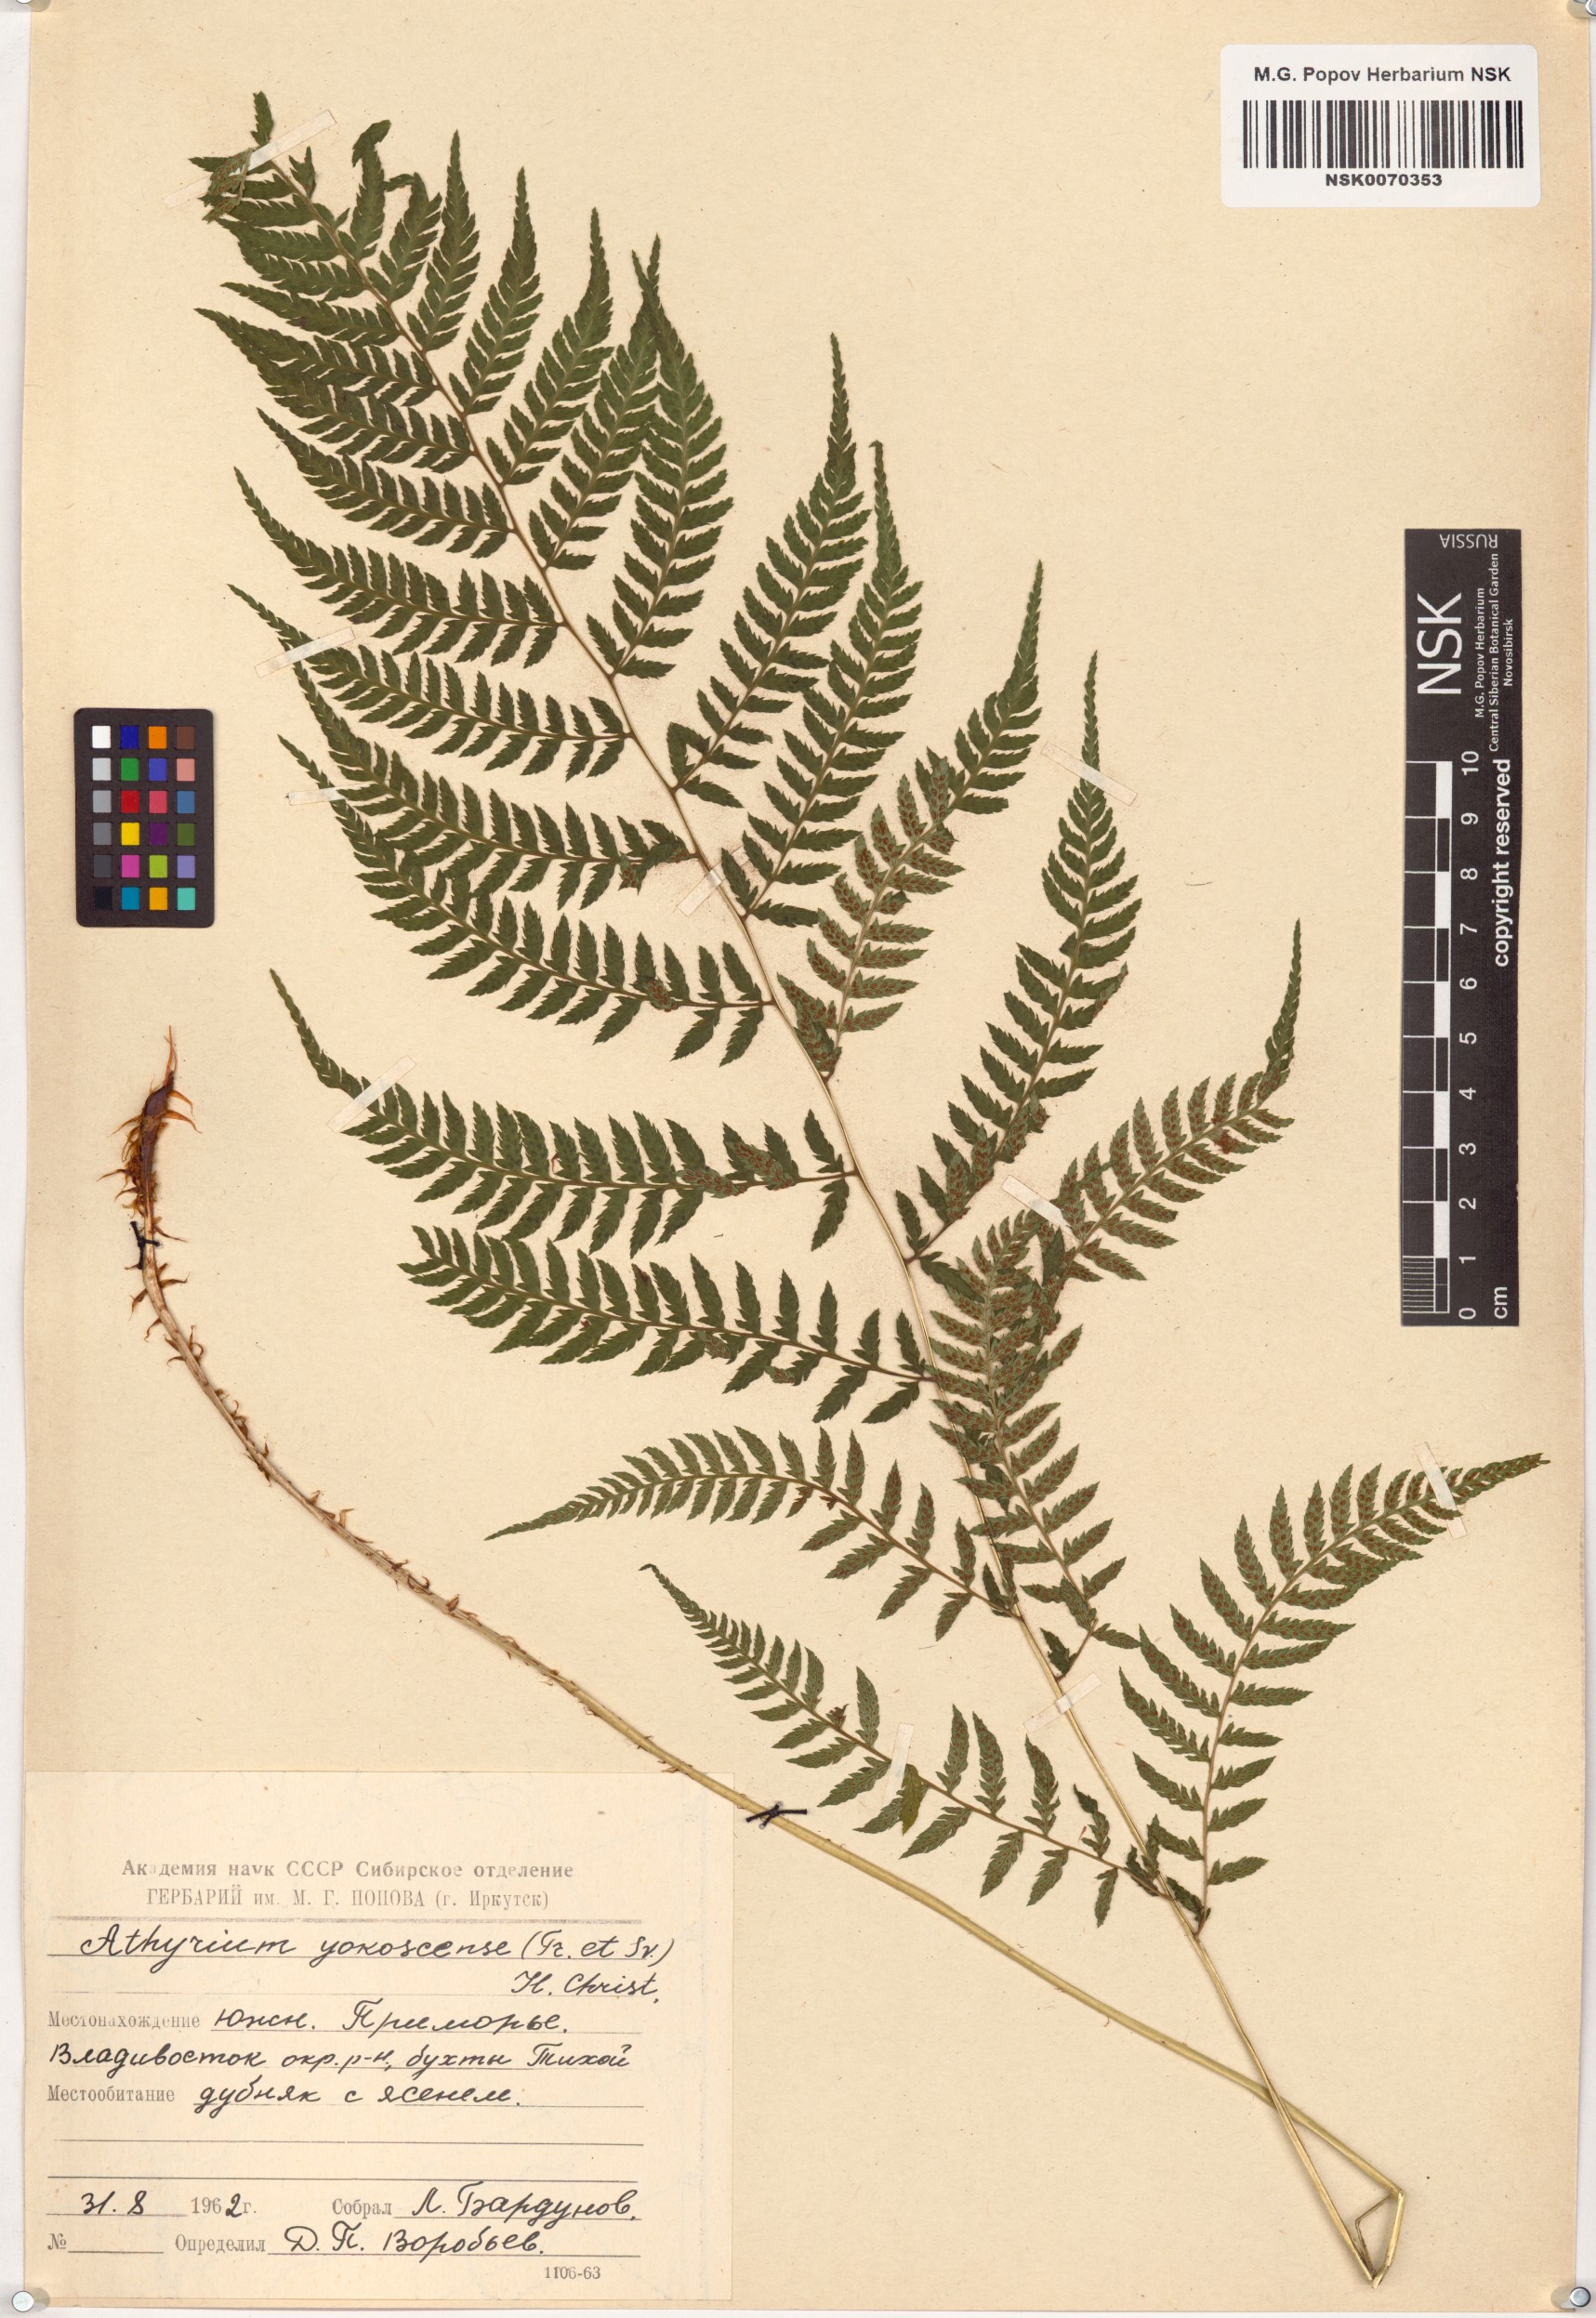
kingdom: Plantae
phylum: Tracheophyta
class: Polypodiopsida
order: Polypodiales
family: Athyriaceae
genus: Athyrium
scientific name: Athyrium yokoscense
